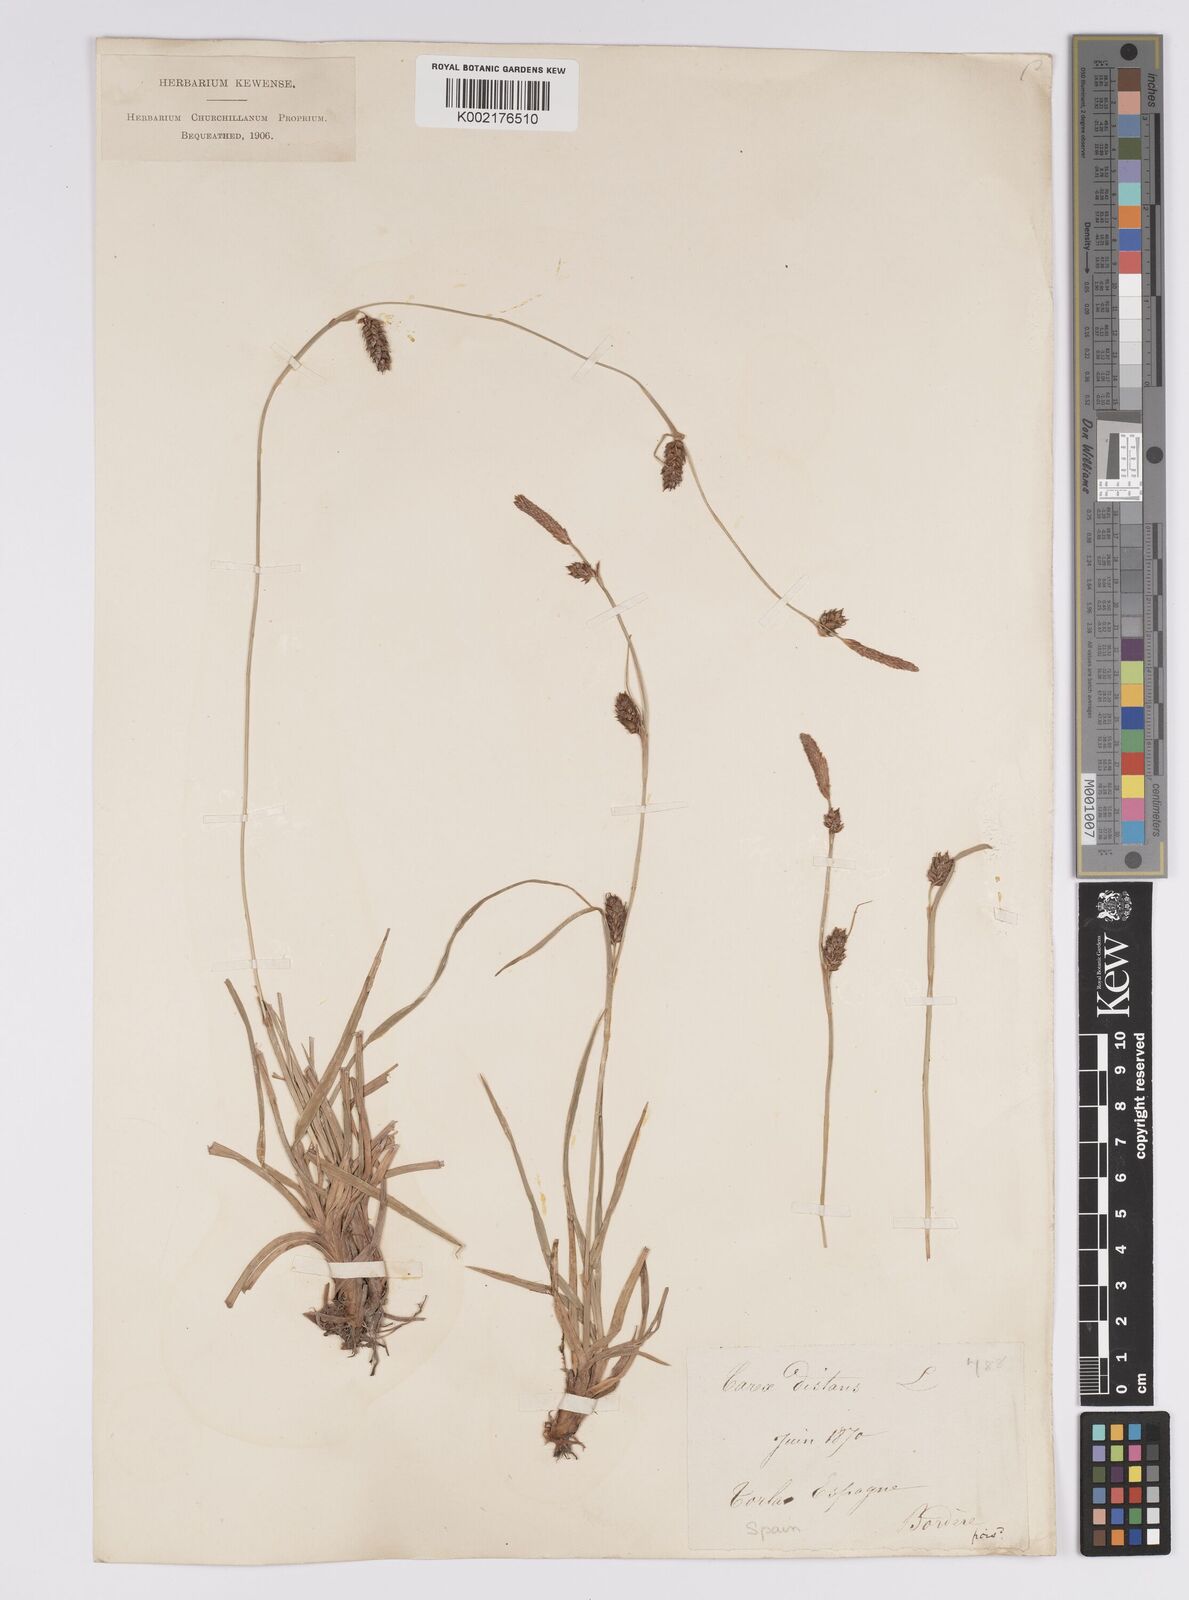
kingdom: Plantae
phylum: Tracheophyta
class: Liliopsida
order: Poales
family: Cyperaceae
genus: Carex
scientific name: Carex distans
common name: Distant sedge
